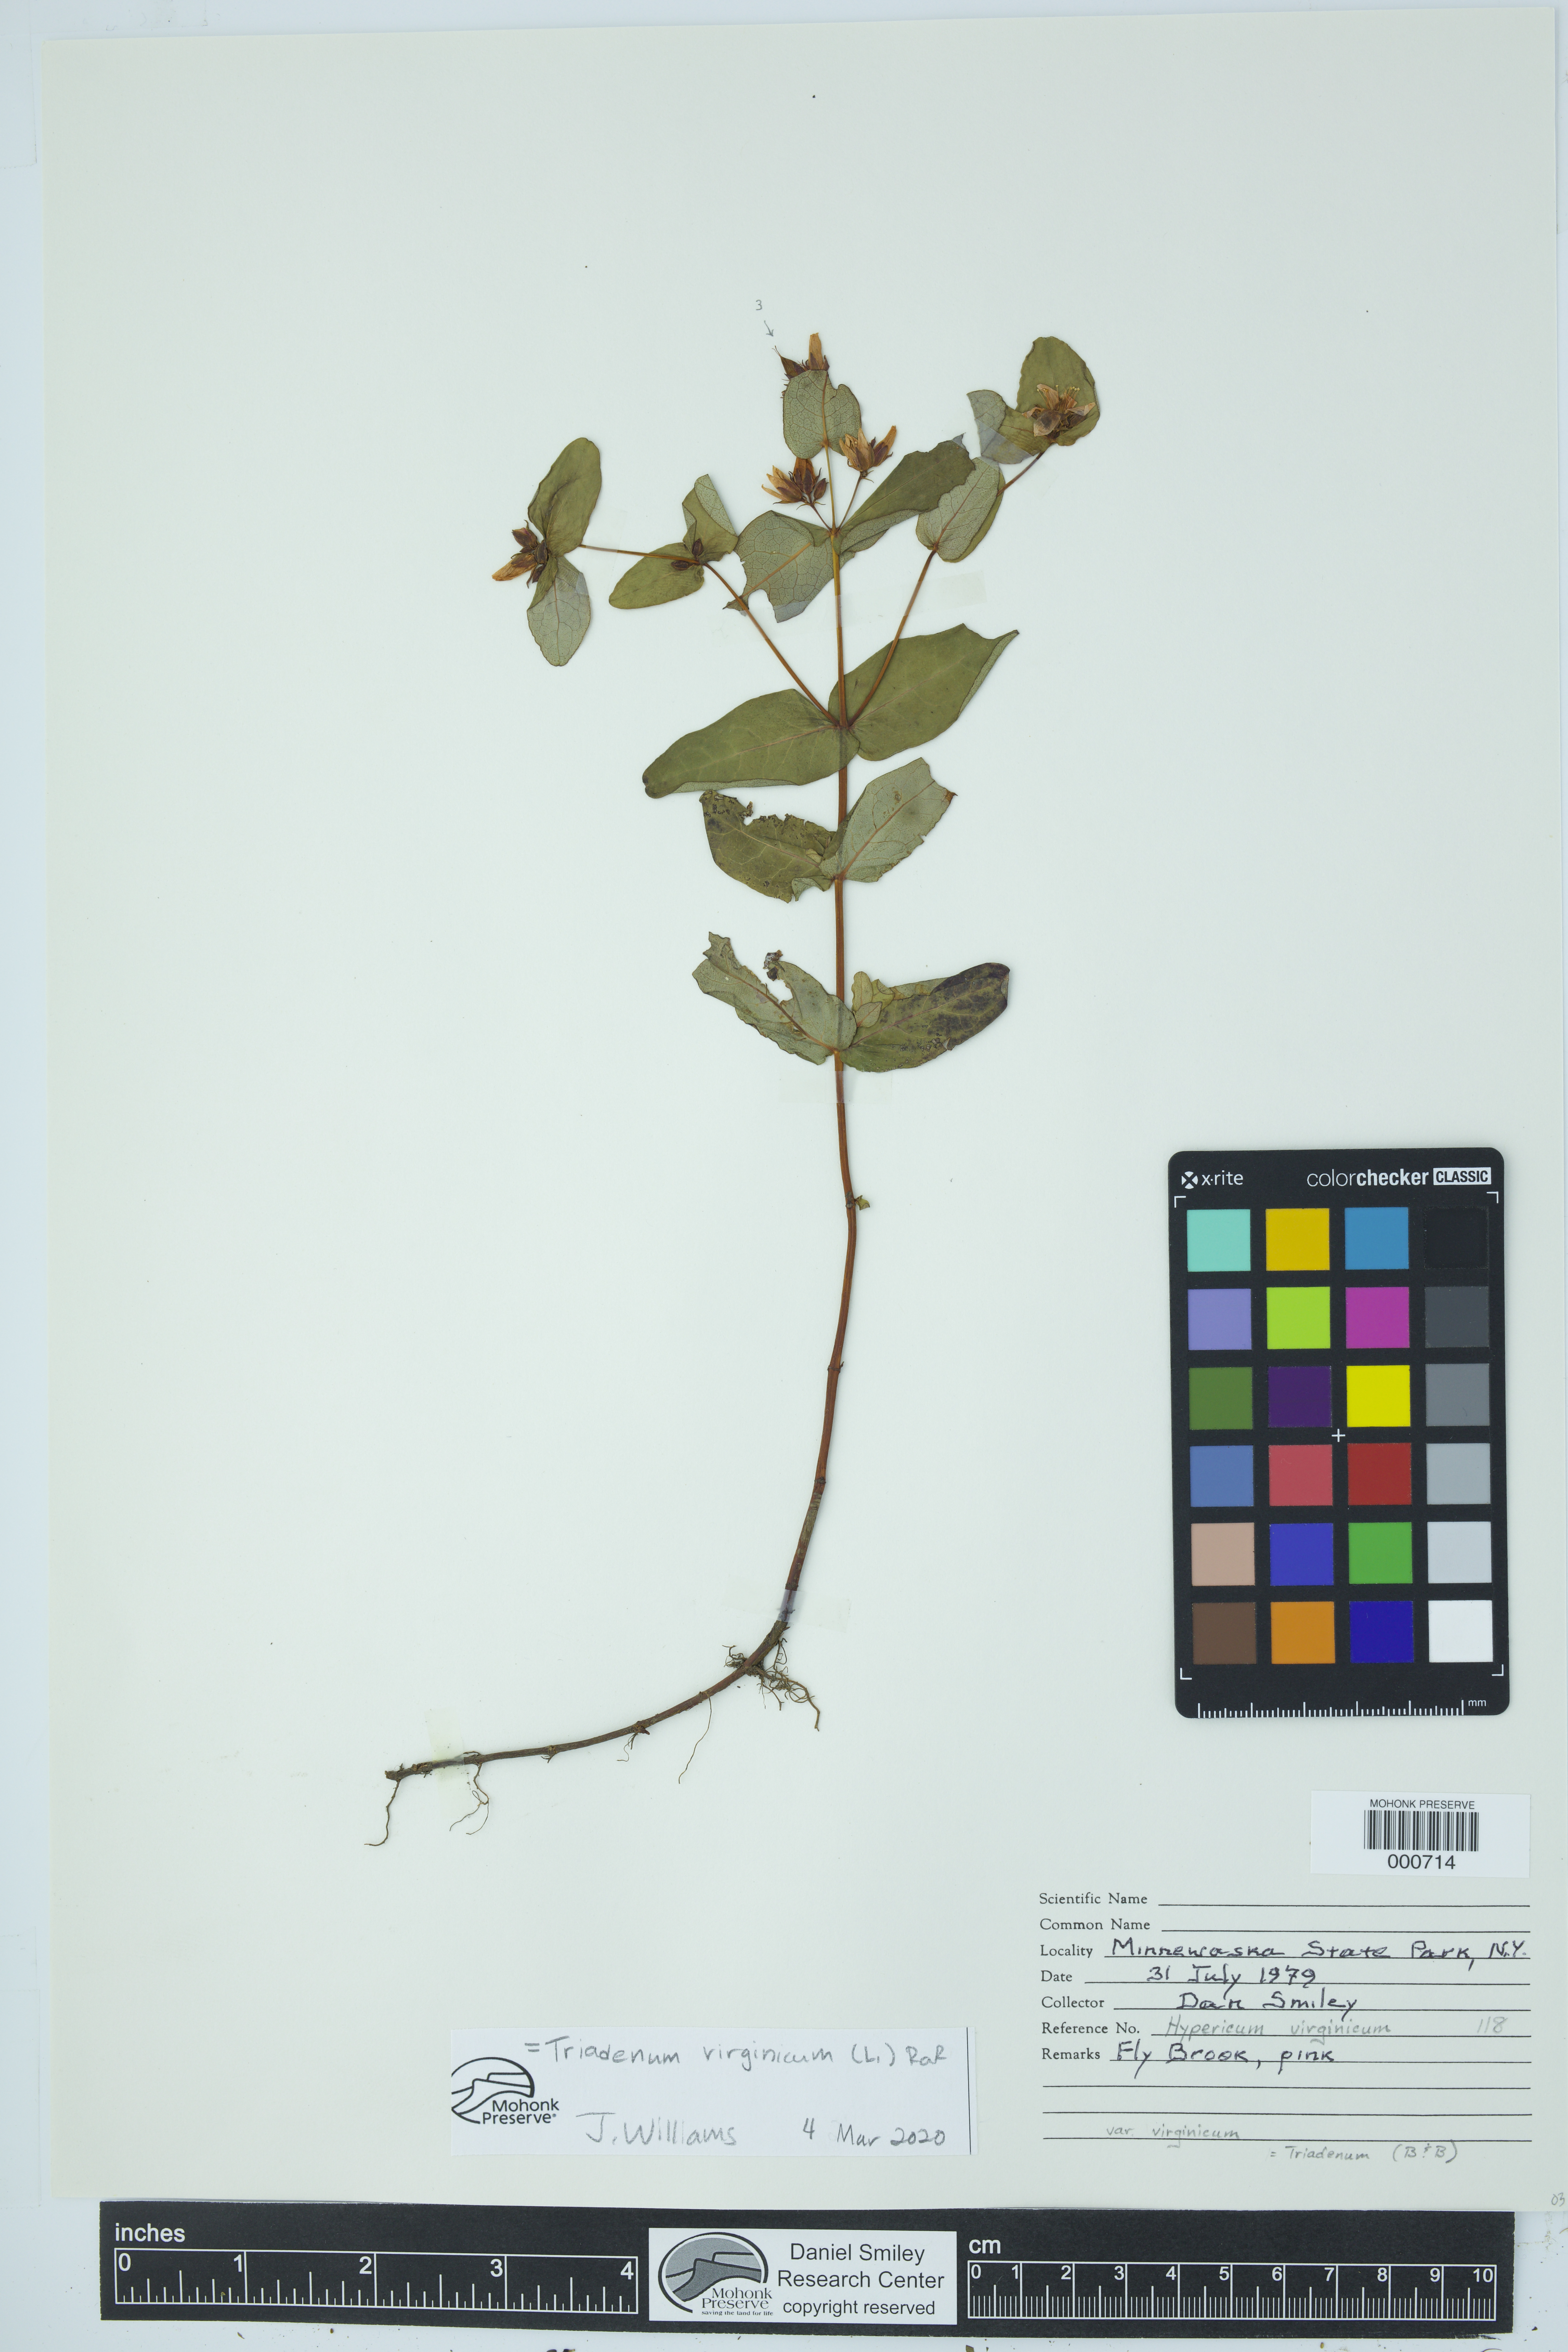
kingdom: Plantae
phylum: Tracheophyta
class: Magnoliopsida
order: Malpighiales
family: Hypericaceae
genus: Triadenum
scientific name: Triadenum virginicum
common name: Marsh st. john's-wort
